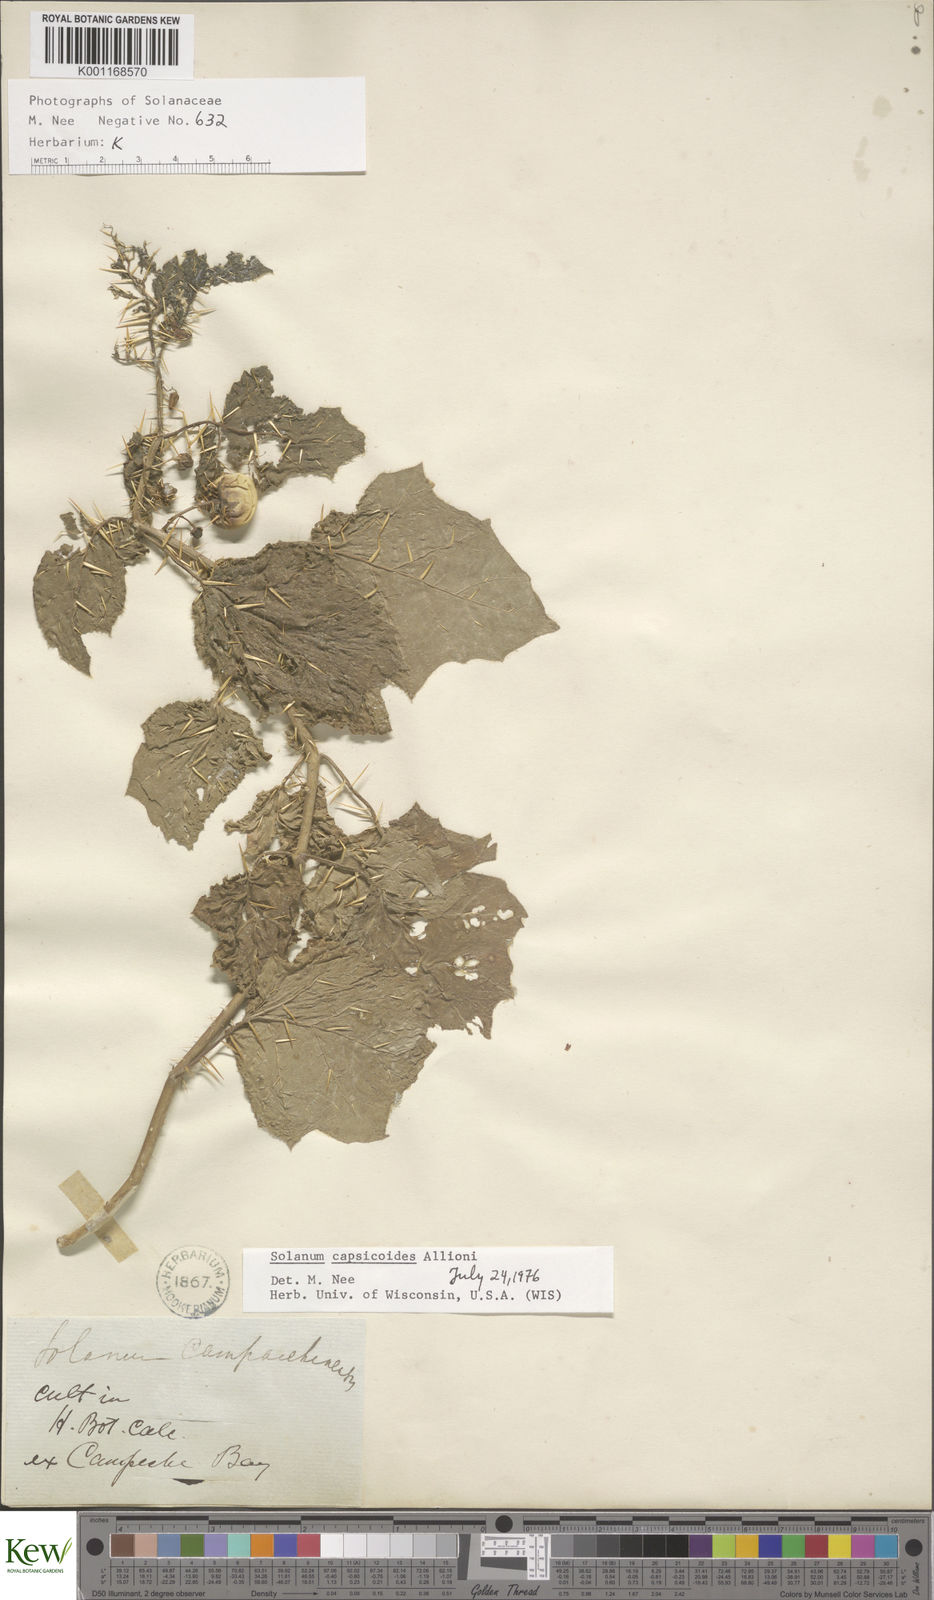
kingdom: Plantae
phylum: Tracheophyta
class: Magnoliopsida
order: Solanales
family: Solanaceae
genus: Solanum
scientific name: Solanum capsicoides
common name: Cockroach berry
